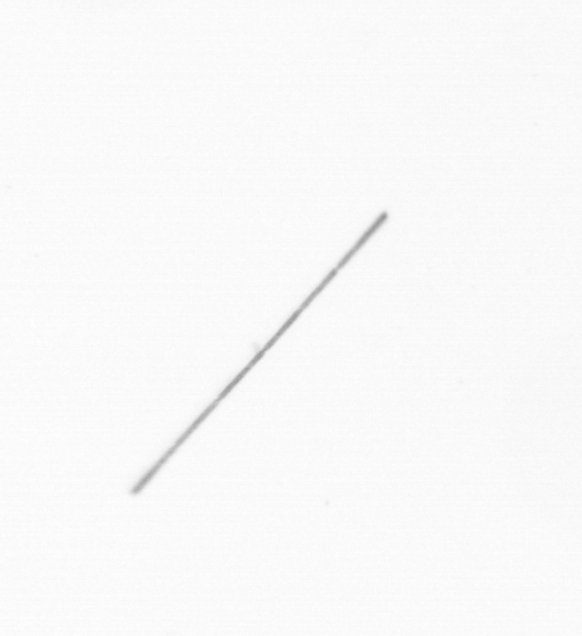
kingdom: Chromista
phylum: Ochrophyta
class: Bacillariophyceae
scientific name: Bacillariophyceae
